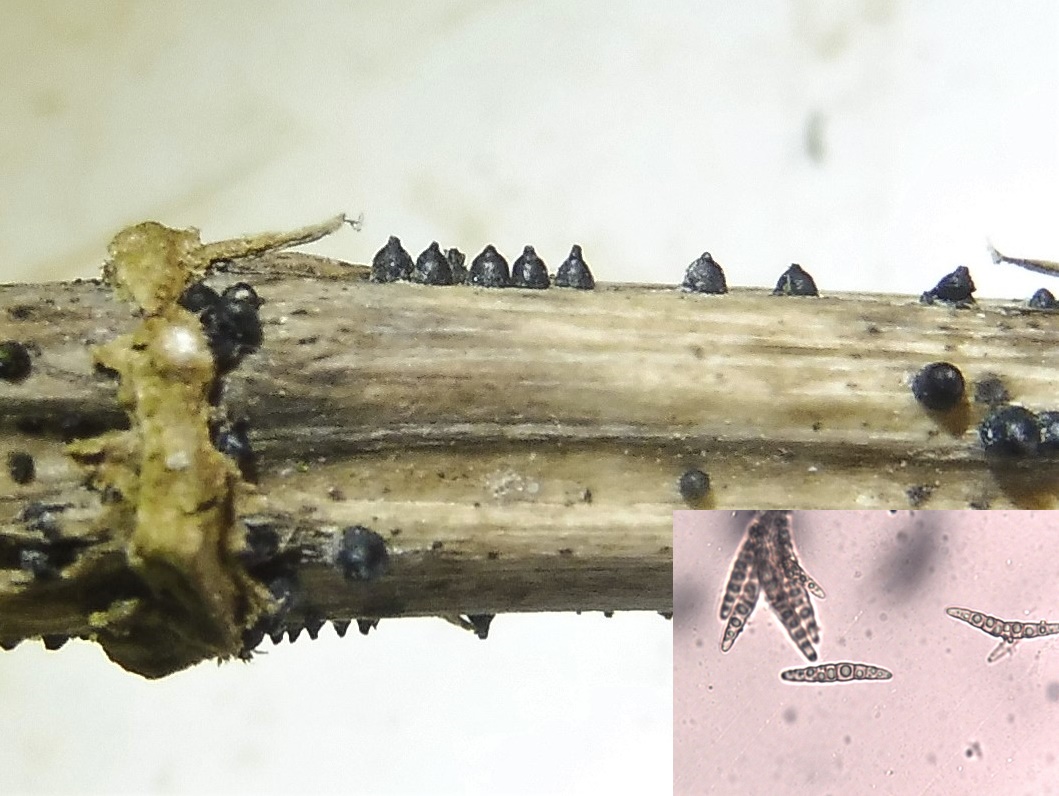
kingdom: Fungi
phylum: Ascomycota
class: Dothideomycetes
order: Pleosporales
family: Leptosphaeriaceae
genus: Leptosphaeria
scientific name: Leptosphaeria acuta
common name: spids kulkegle
